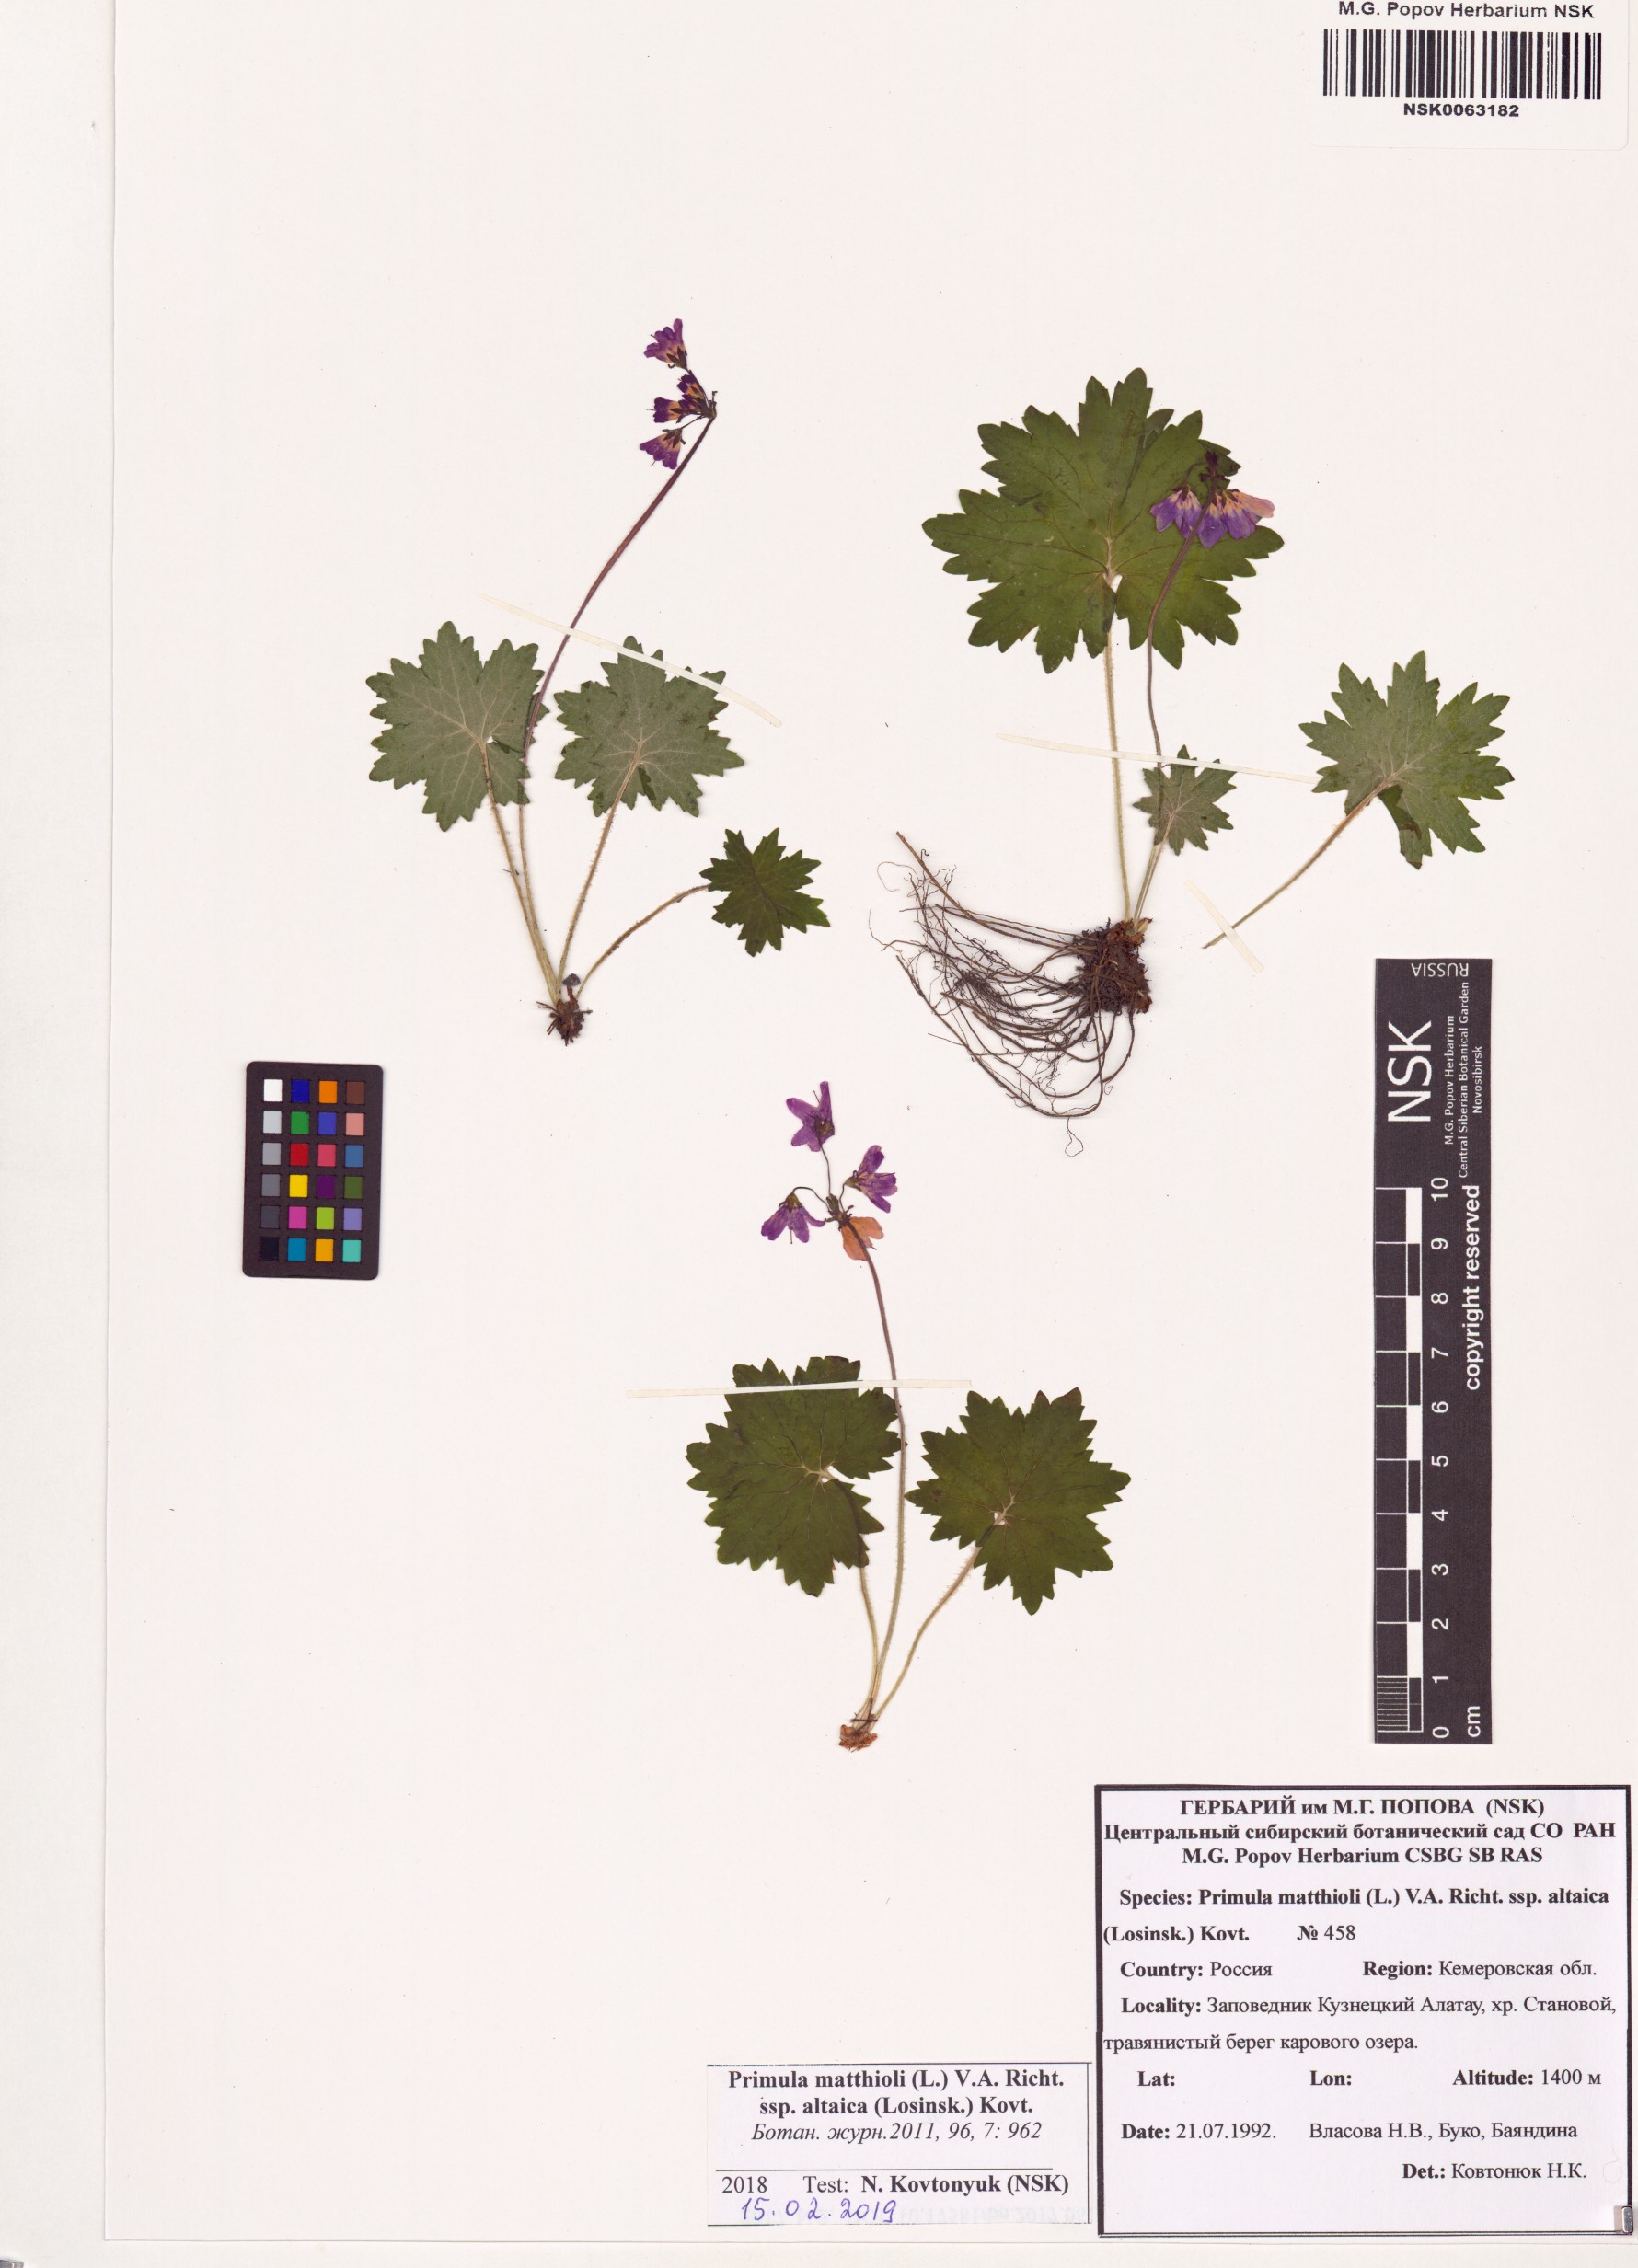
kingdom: Plantae
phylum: Tracheophyta
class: Magnoliopsida
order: Ericales
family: Primulaceae
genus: Primula
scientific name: Primula matthioli
